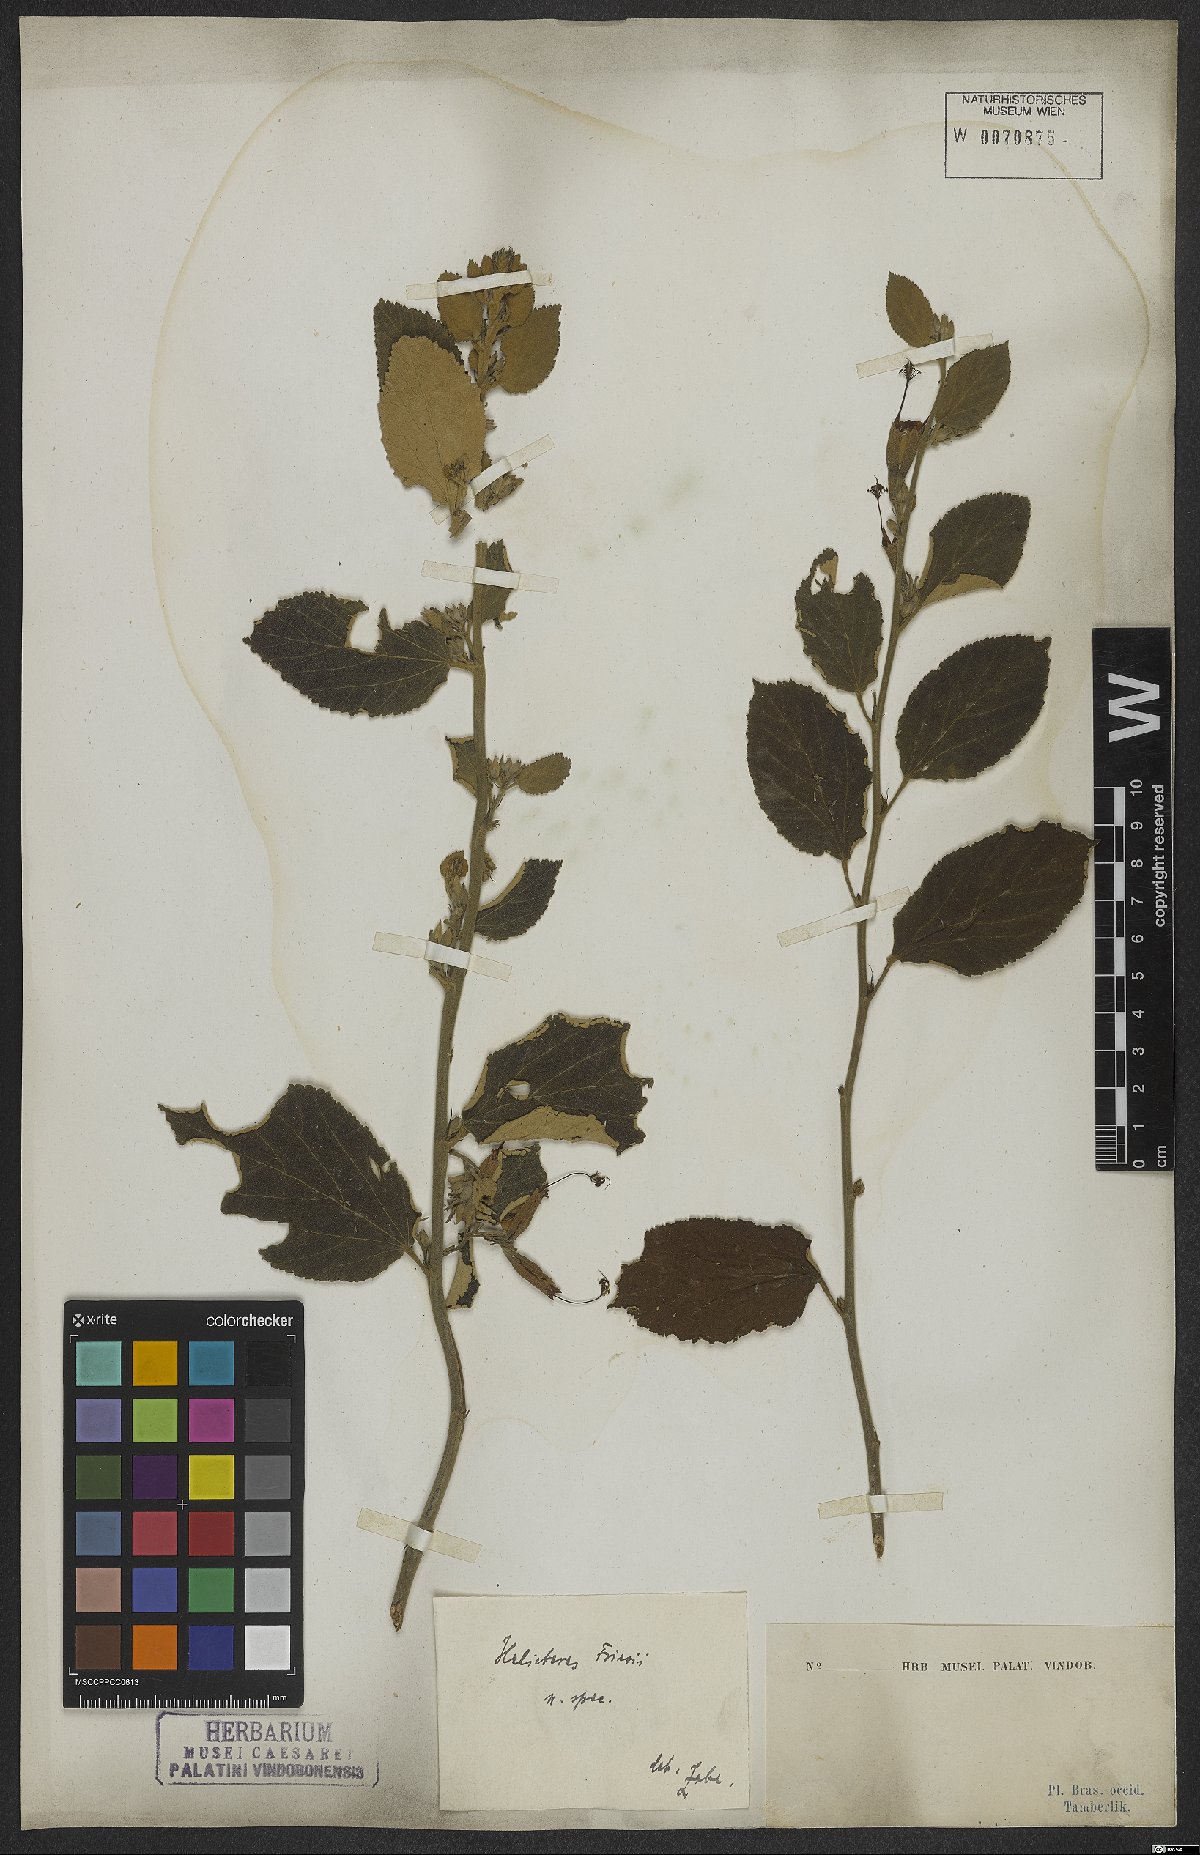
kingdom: Plantae
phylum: Tracheophyta
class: Magnoliopsida
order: Malvales
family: Malvaceae
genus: Helicteres
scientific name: Helicteres friesii
